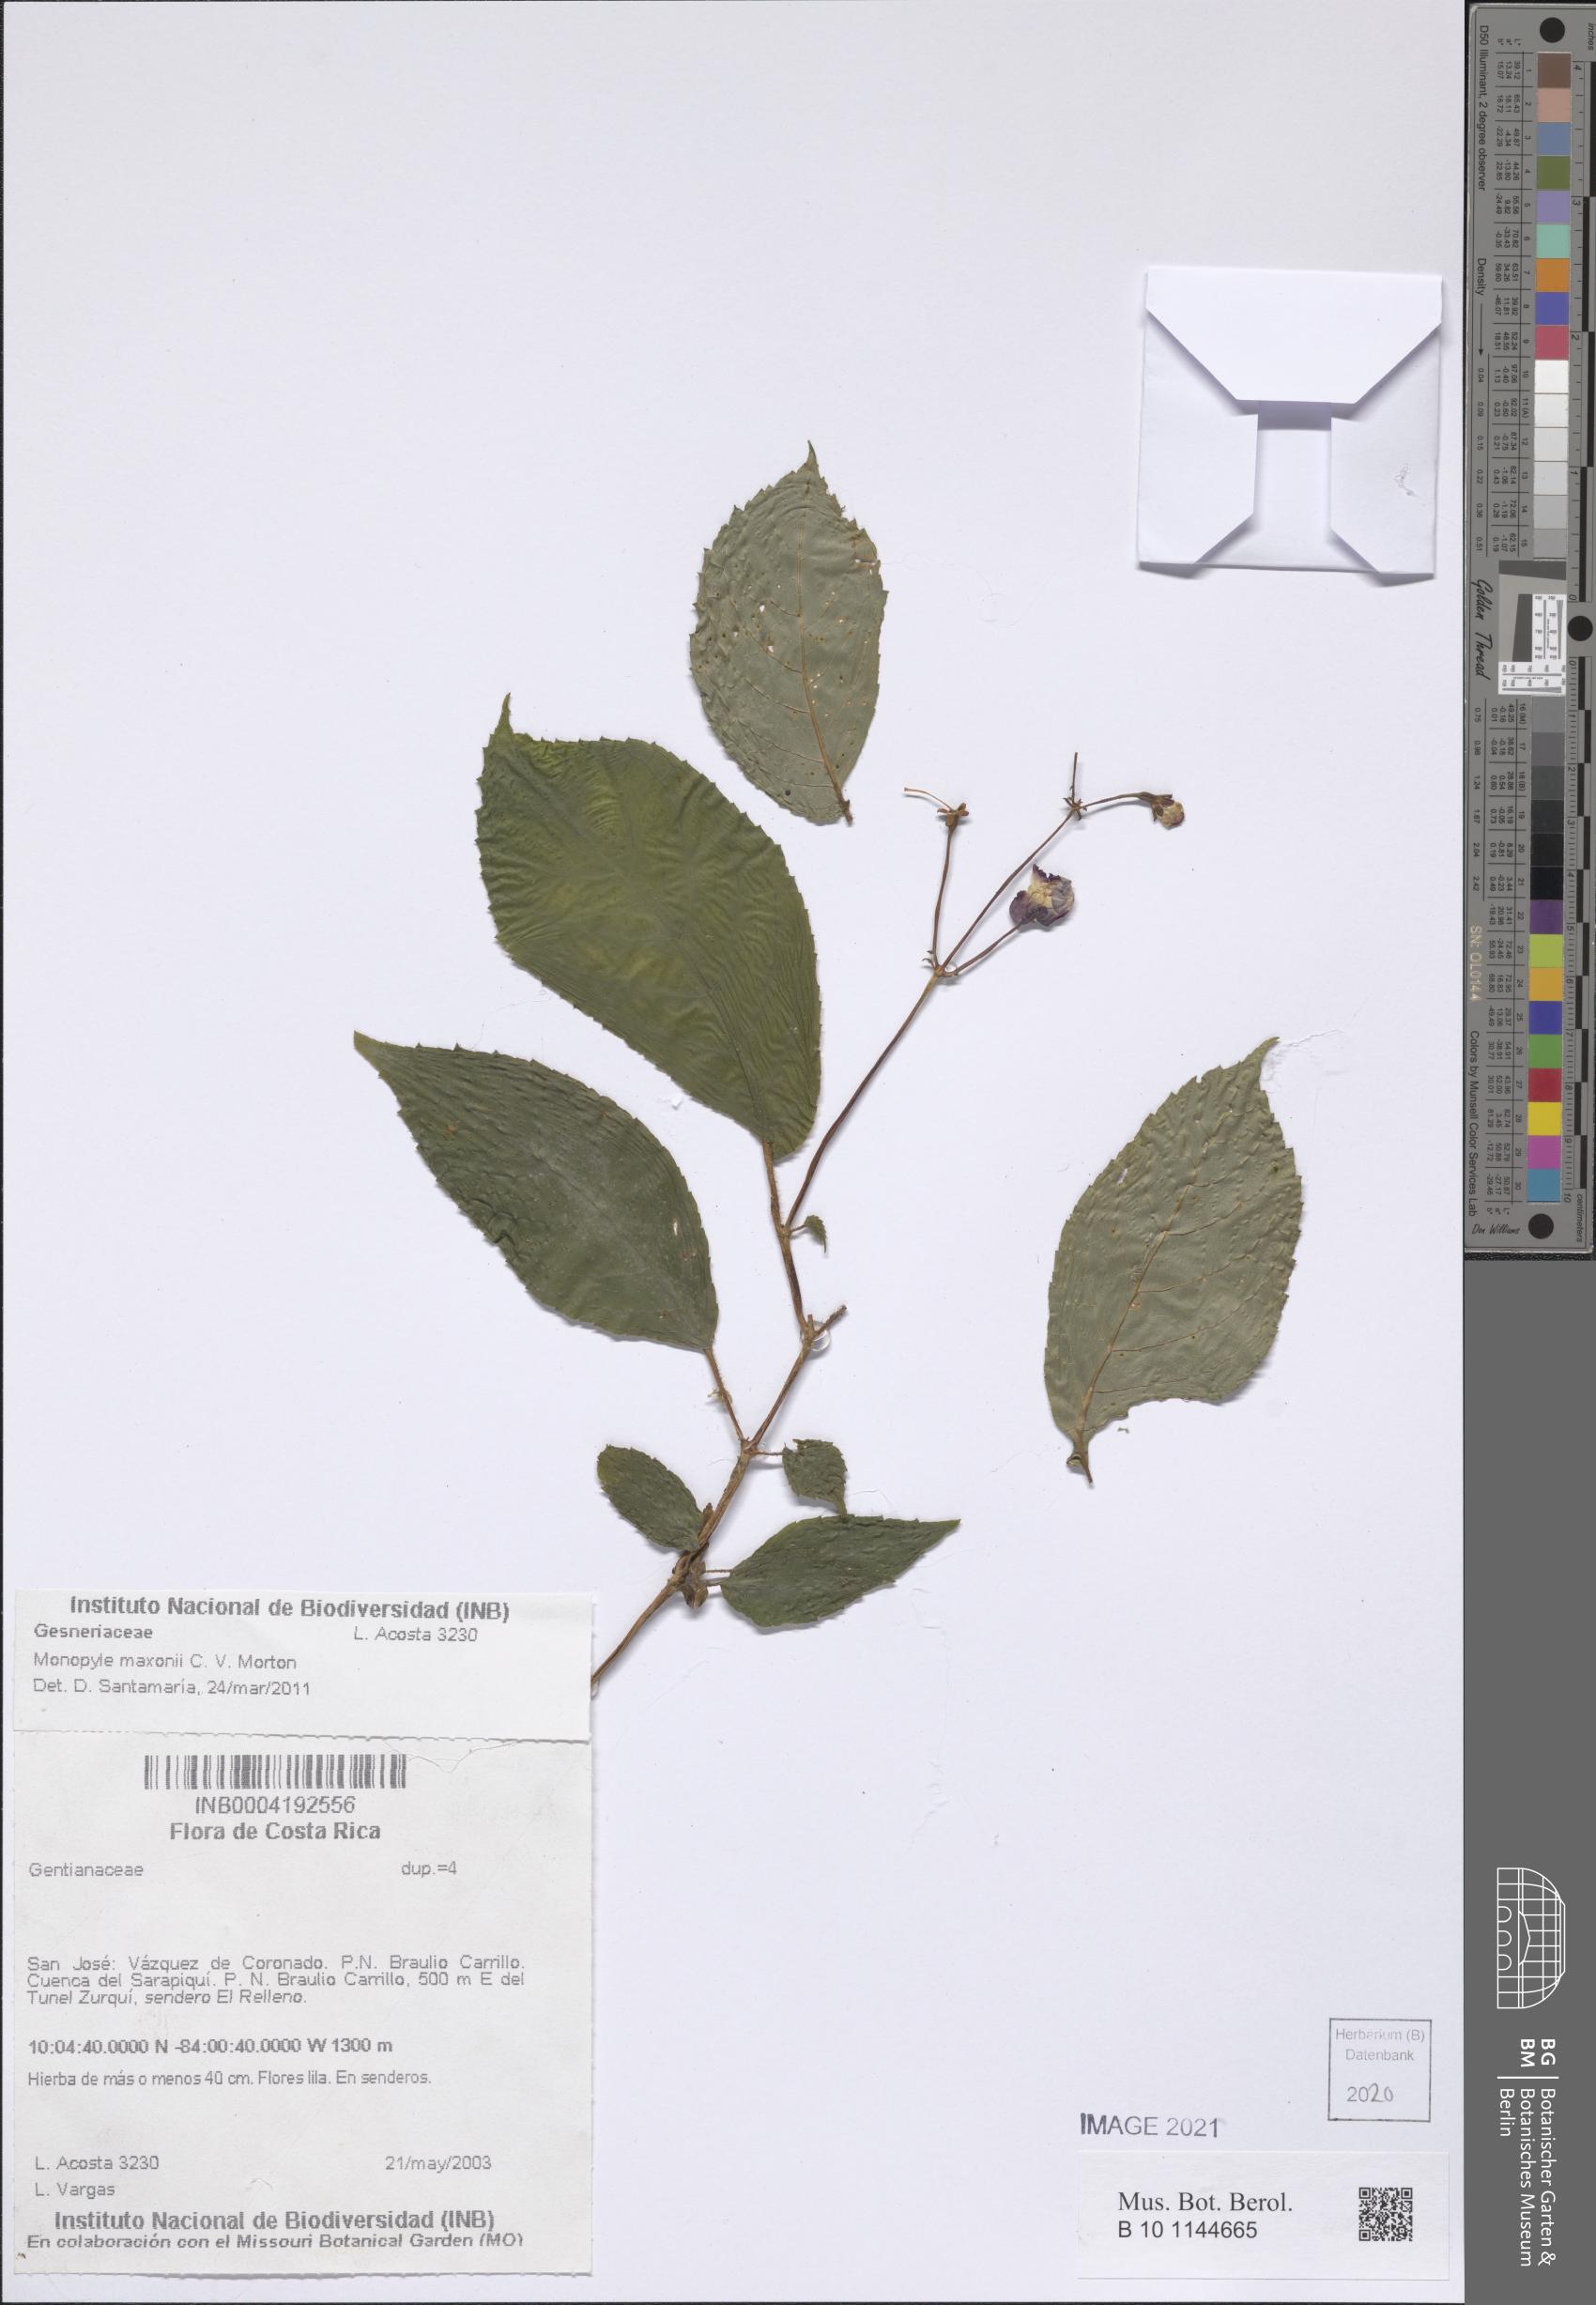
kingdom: Plantae
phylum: Tracheophyta
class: Magnoliopsida
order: Gentianales
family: Gentianaceae
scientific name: Gentianaceae
